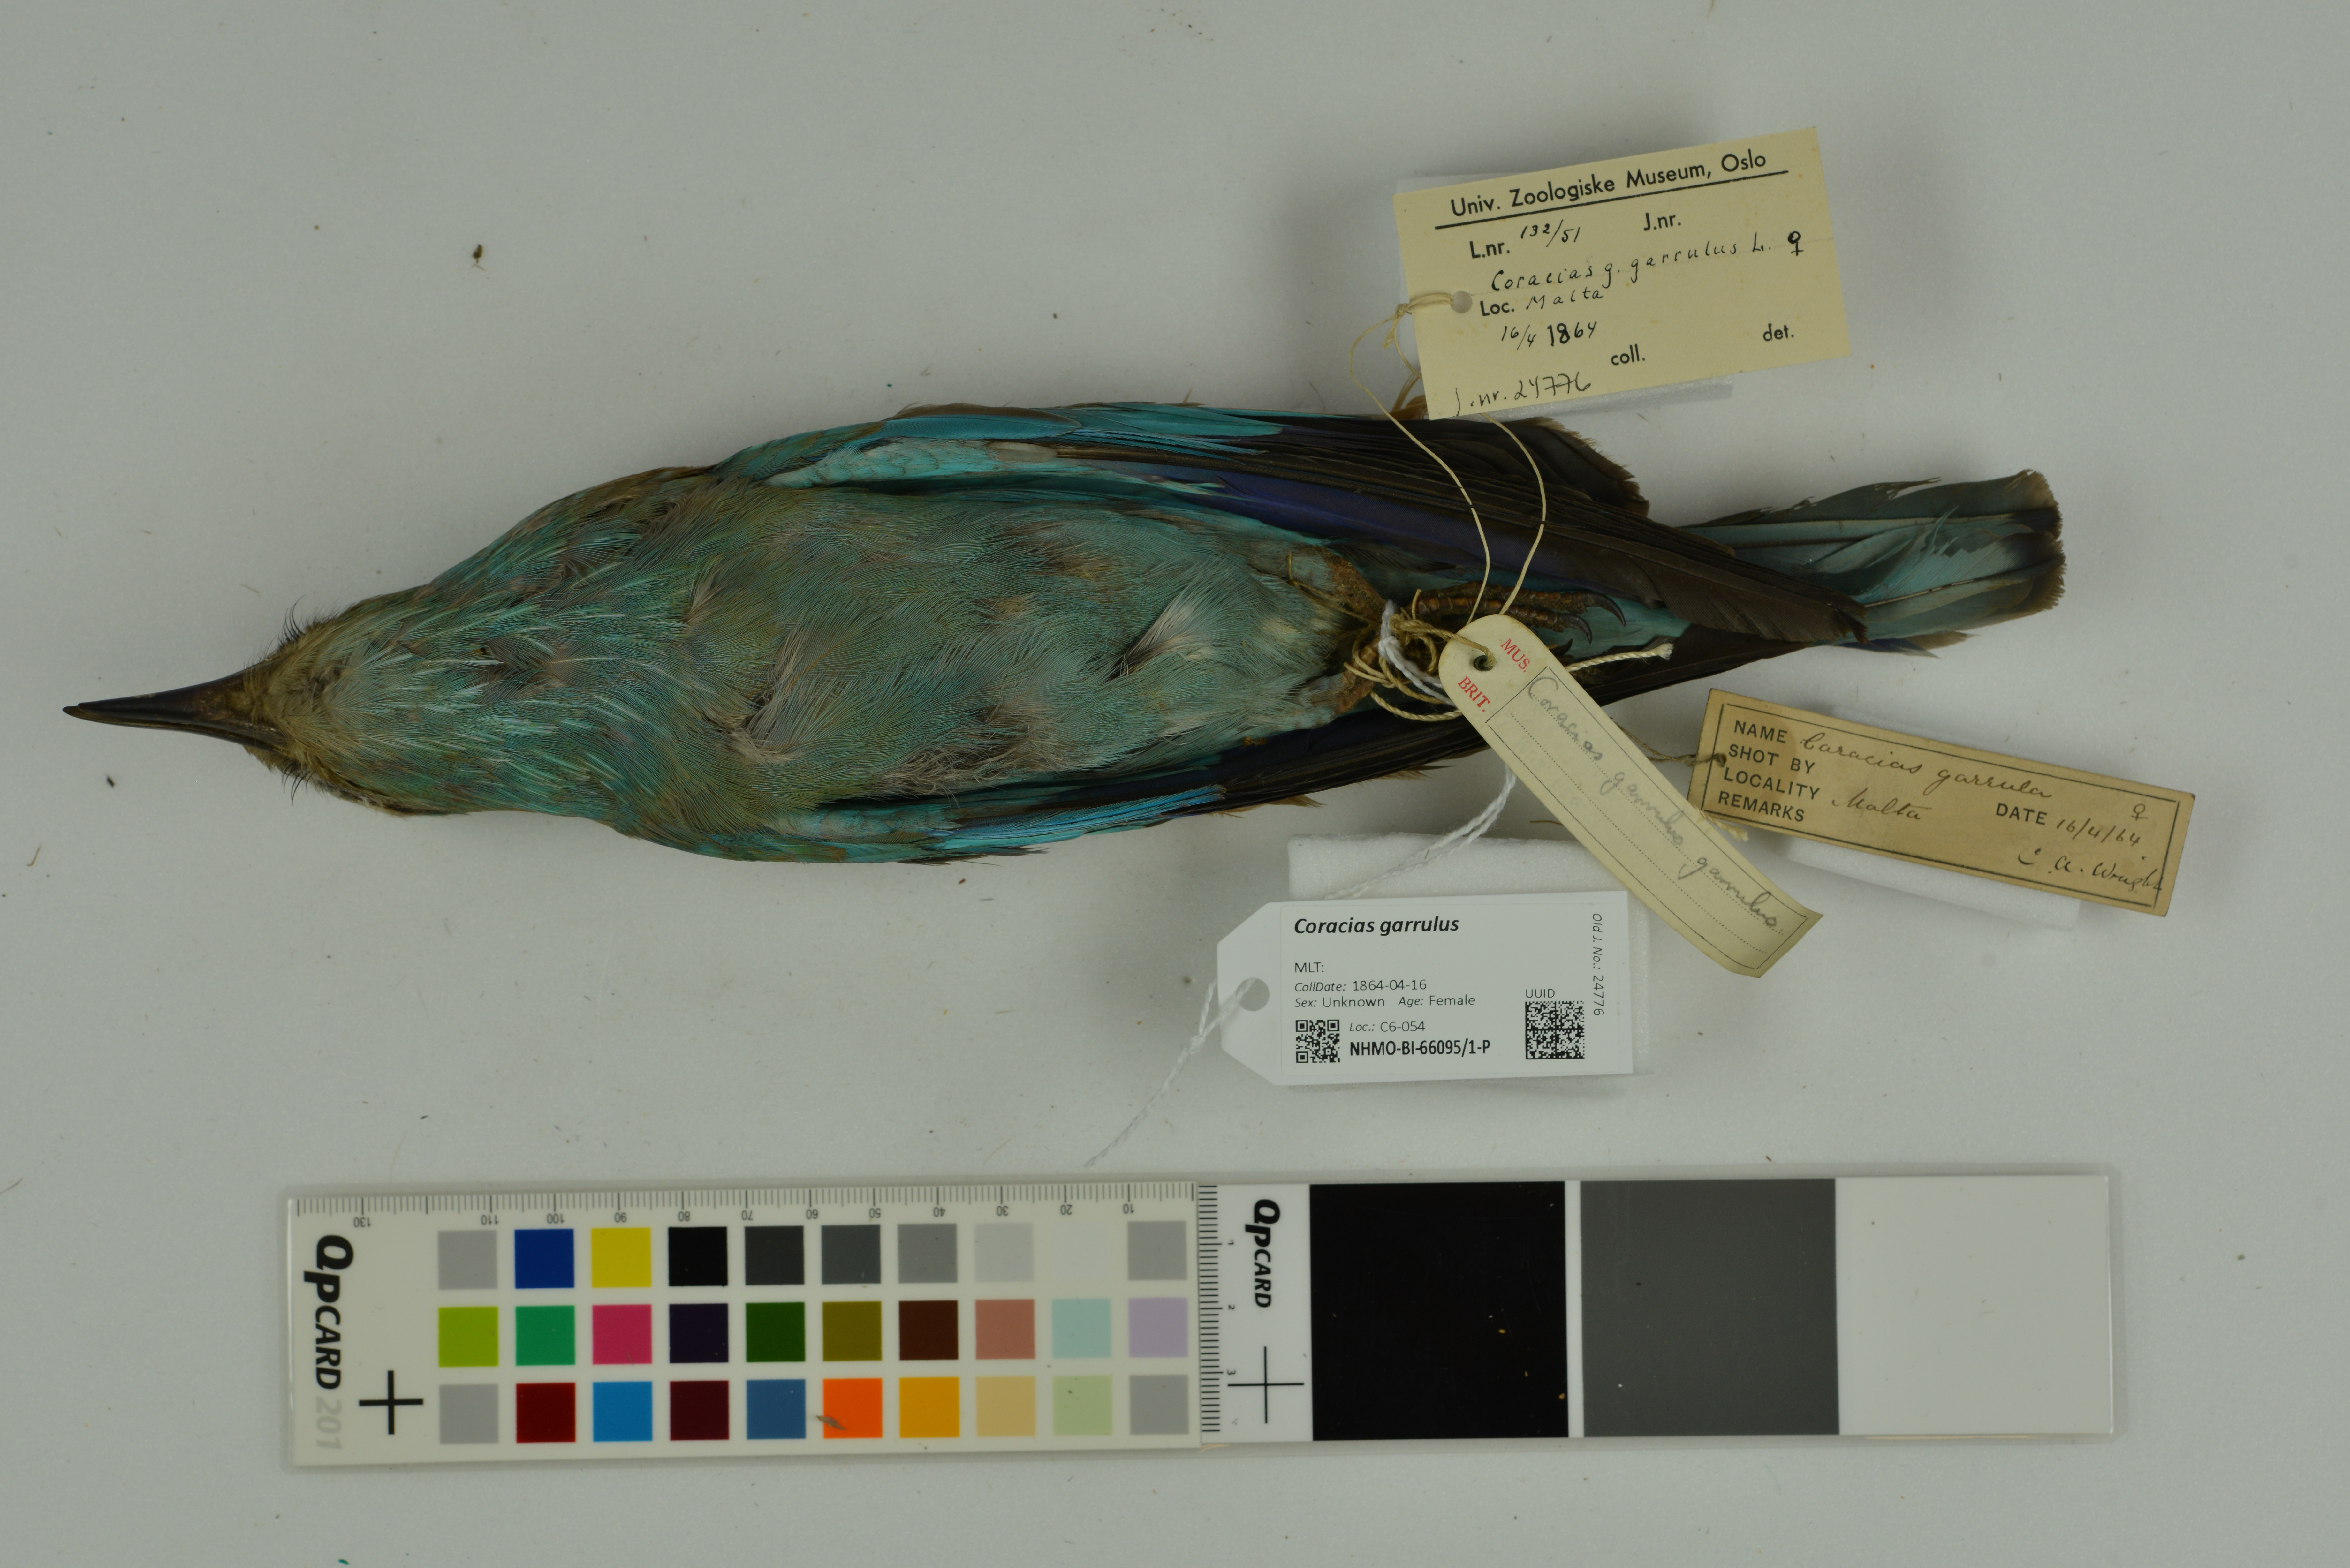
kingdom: Animalia
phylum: Chordata
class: Aves
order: Coraciiformes
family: Coraciidae
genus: Coracias
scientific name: Coracias garrulus
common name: European roller
